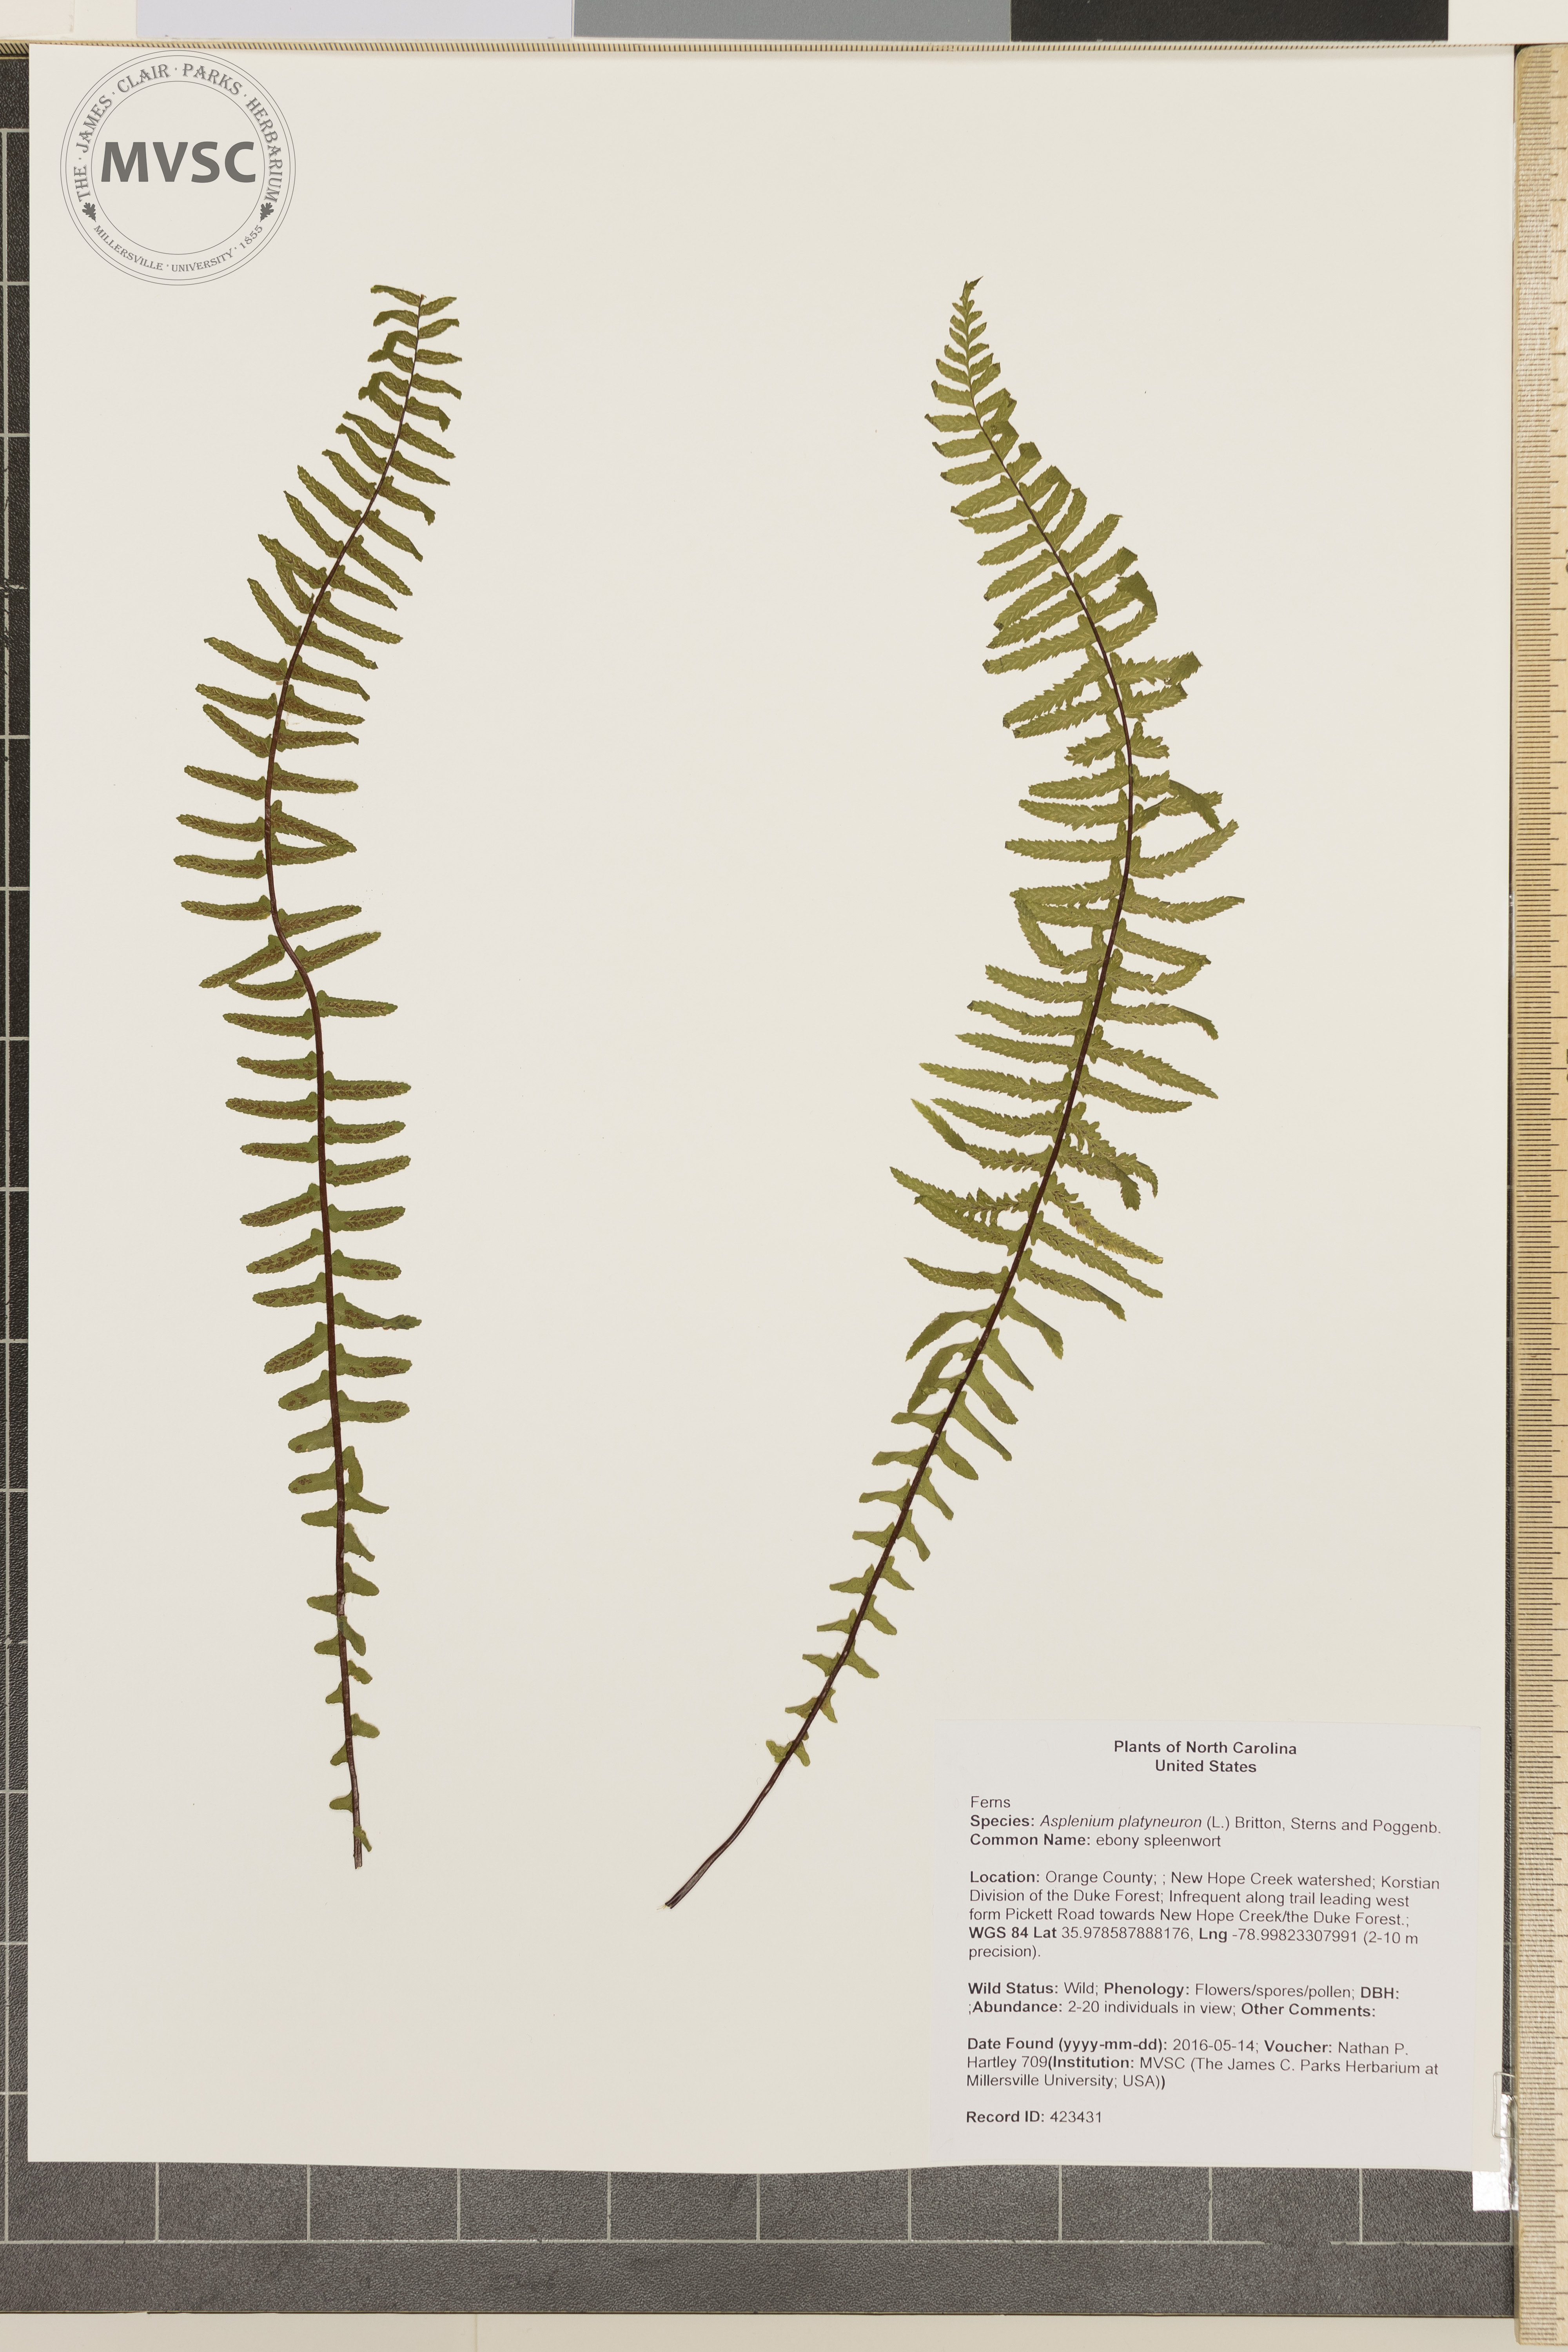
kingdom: Plantae
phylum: Tracheophyta
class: Polypodiopsida
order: Polypodiales
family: Aspleniaceae
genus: Asplenium
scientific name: Asplenium platyneuron
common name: ebony spleenwort
